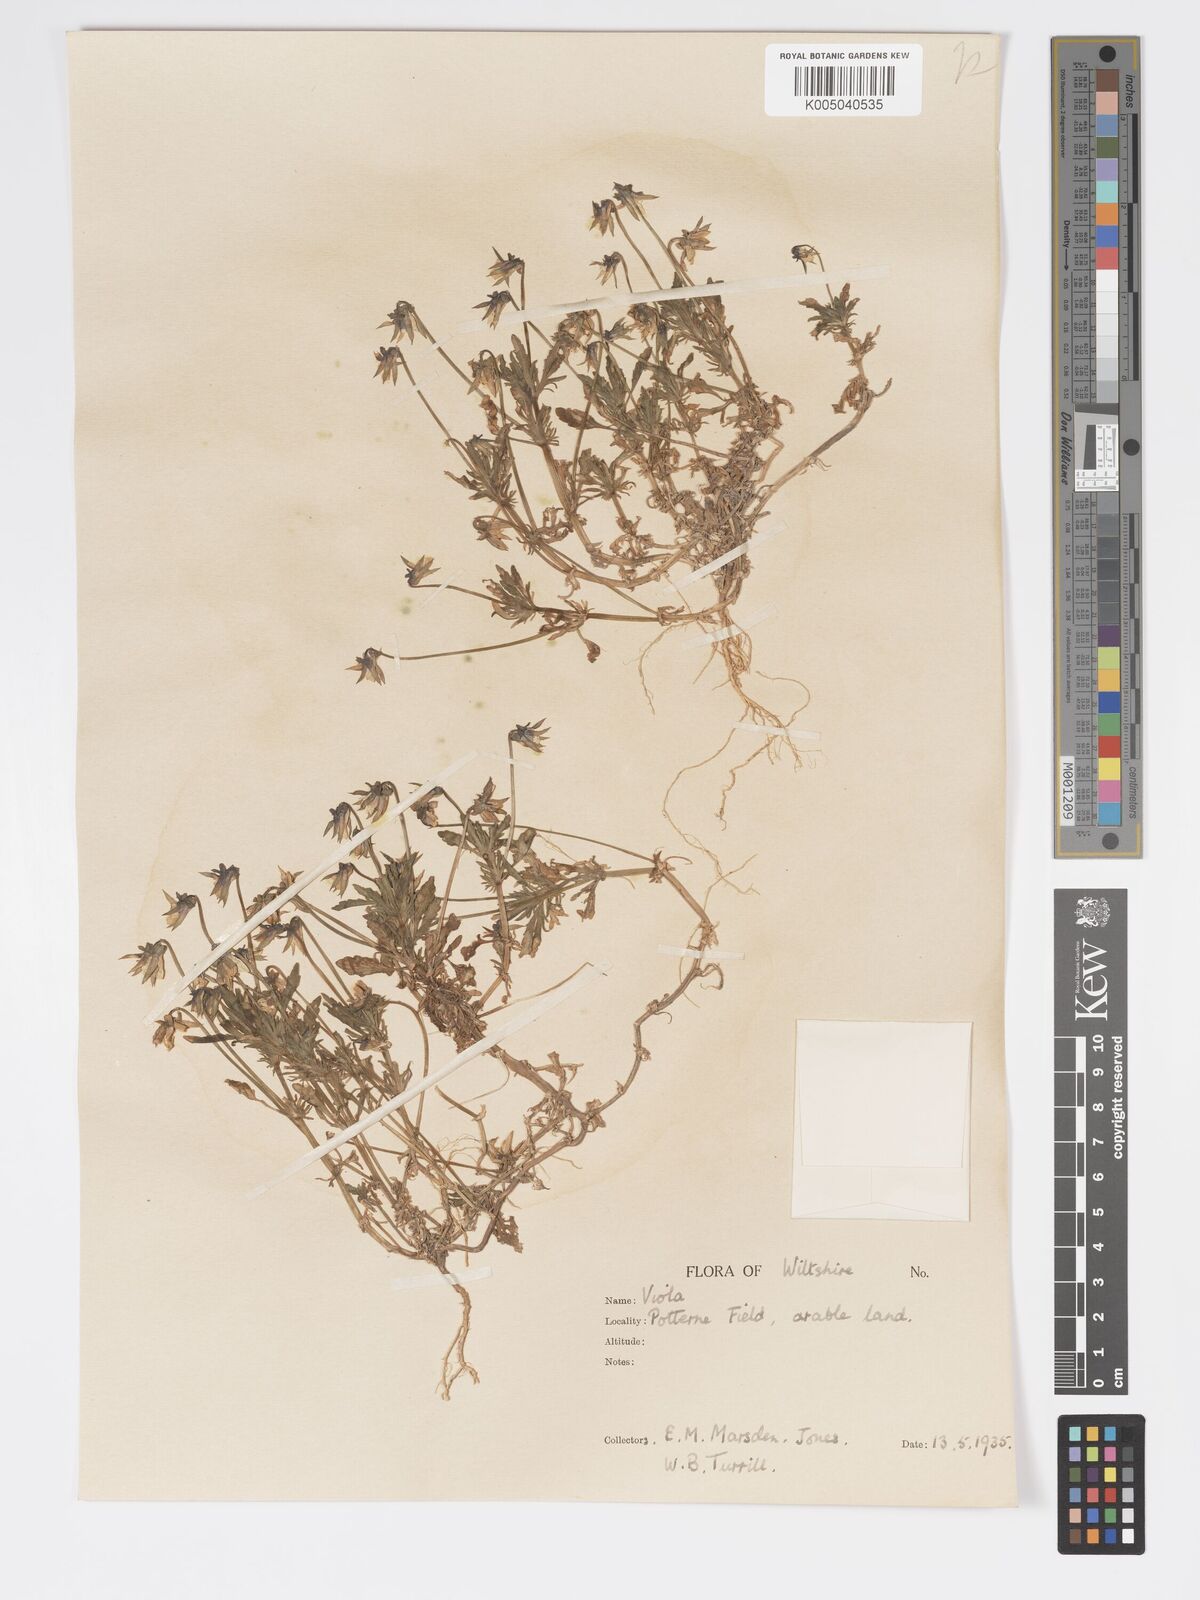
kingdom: Plantae
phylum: Tracheophyta
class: Magnoliopsida
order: Malpighiales
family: Violaceae
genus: Viola
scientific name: Viola
